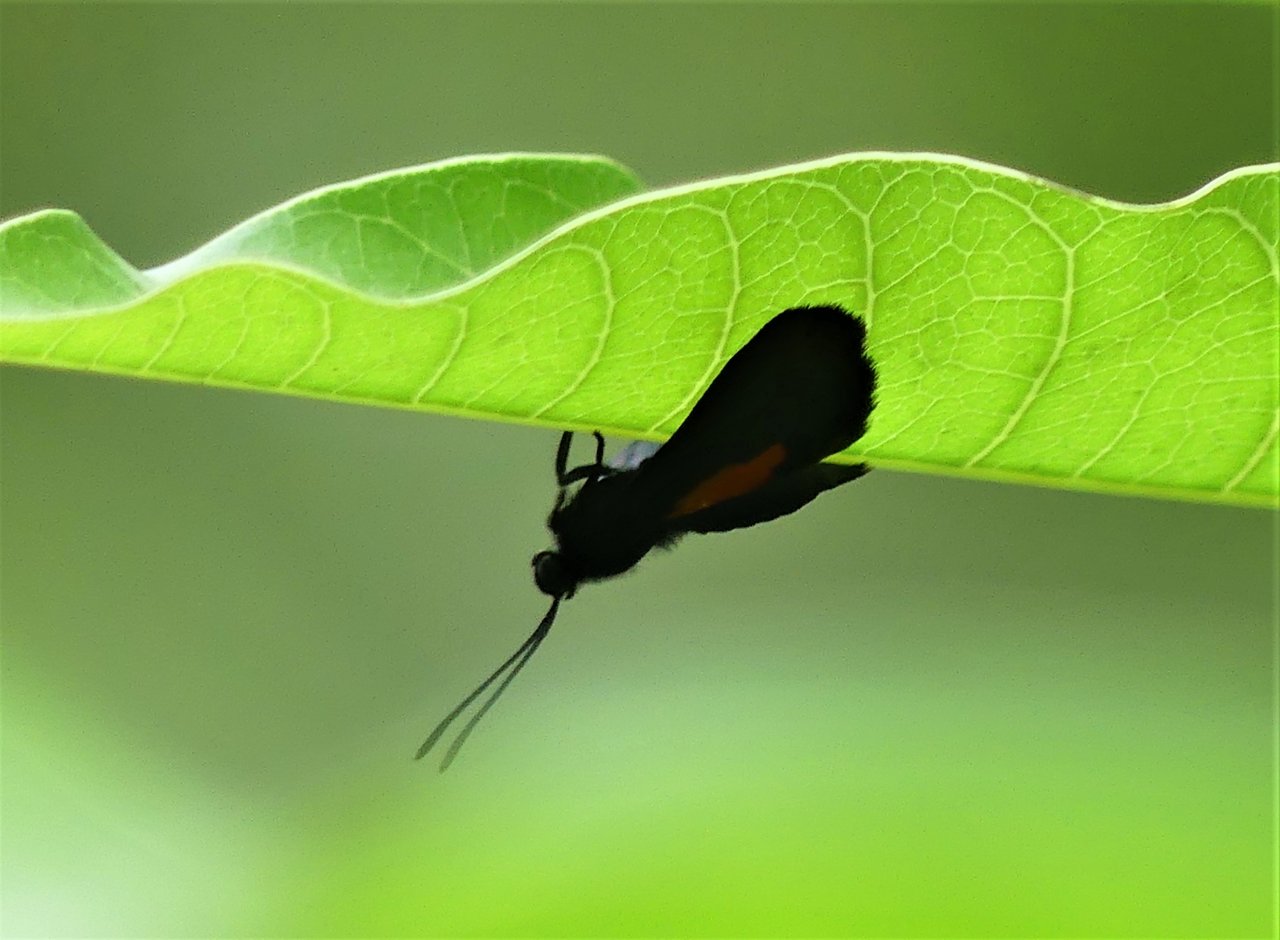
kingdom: Animalia
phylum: Arthropoda
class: Insecta
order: Lepidoptera
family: Riodinidae
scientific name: Riodinidae
